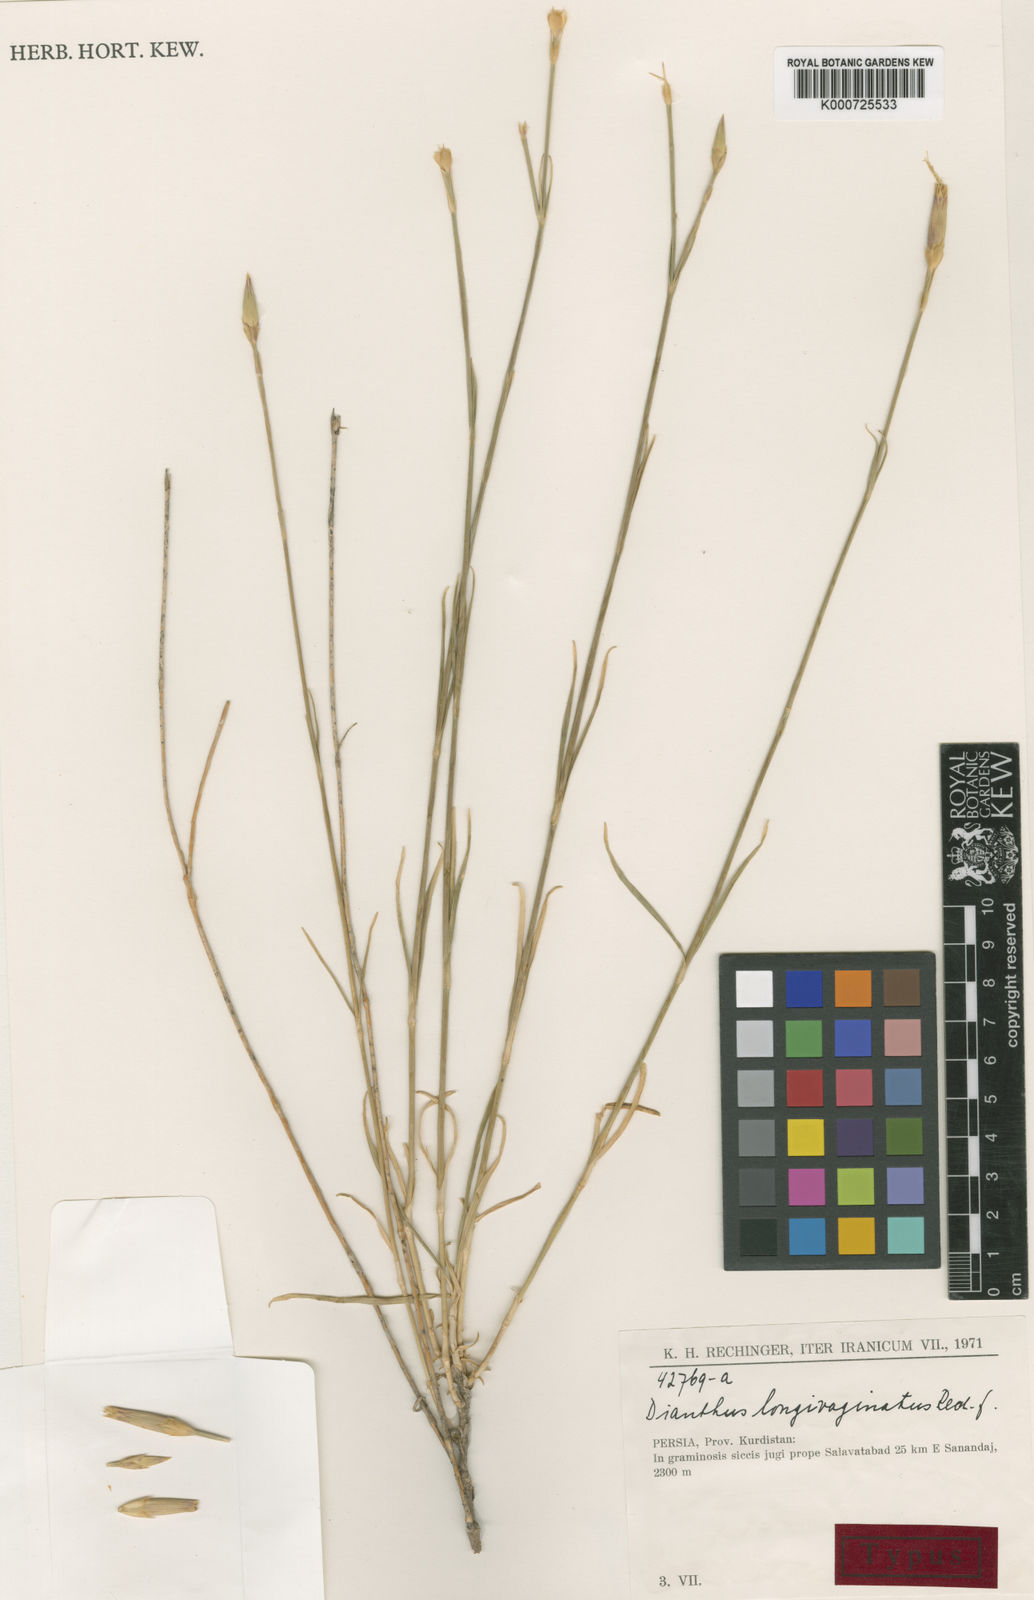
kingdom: Plantae
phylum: Tracheophyta
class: Magnoliopsida
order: Caryophyllales
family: Caryophyllaceae
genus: Dianthus
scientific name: Dianthus longivaginatus
